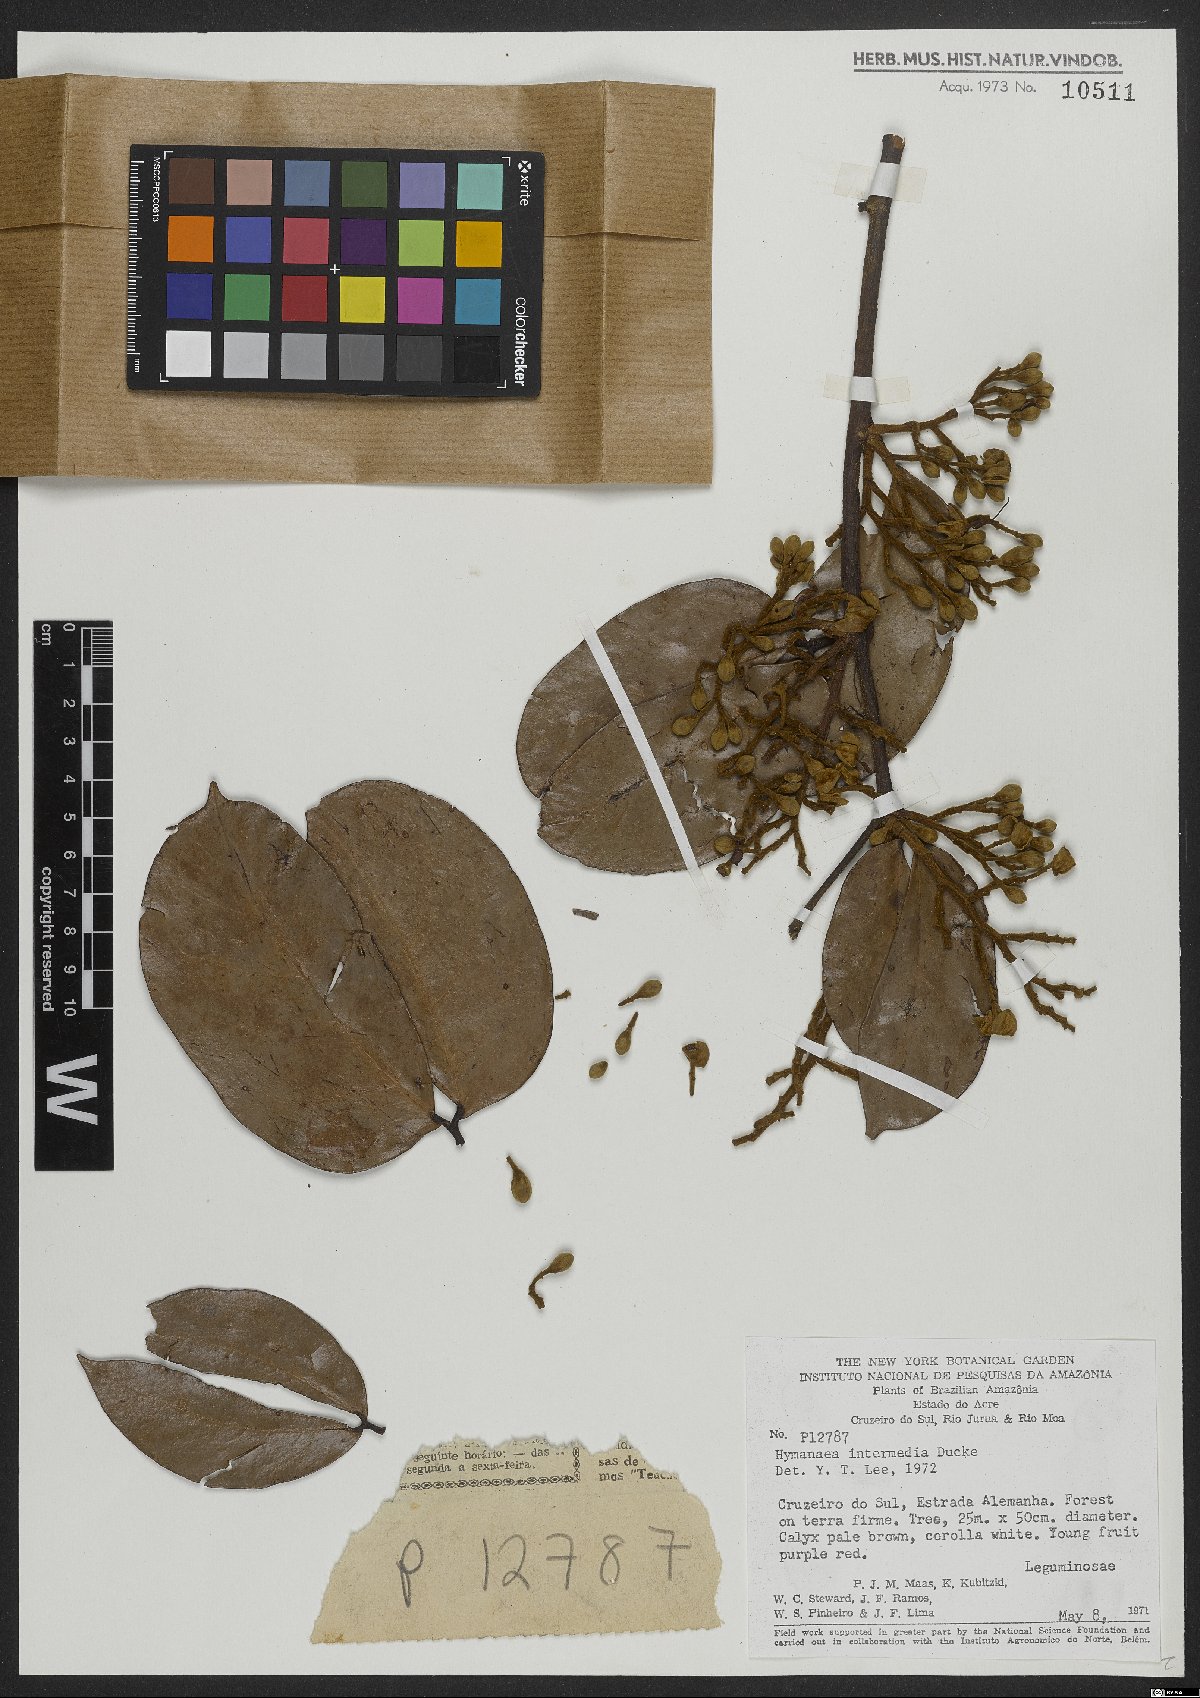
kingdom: Plantae
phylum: Tracheophyta
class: Magnoliopsida
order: Fabales
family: Fabaceae
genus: Hymenaea
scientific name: Hymenaea intermedia
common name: South american copal
